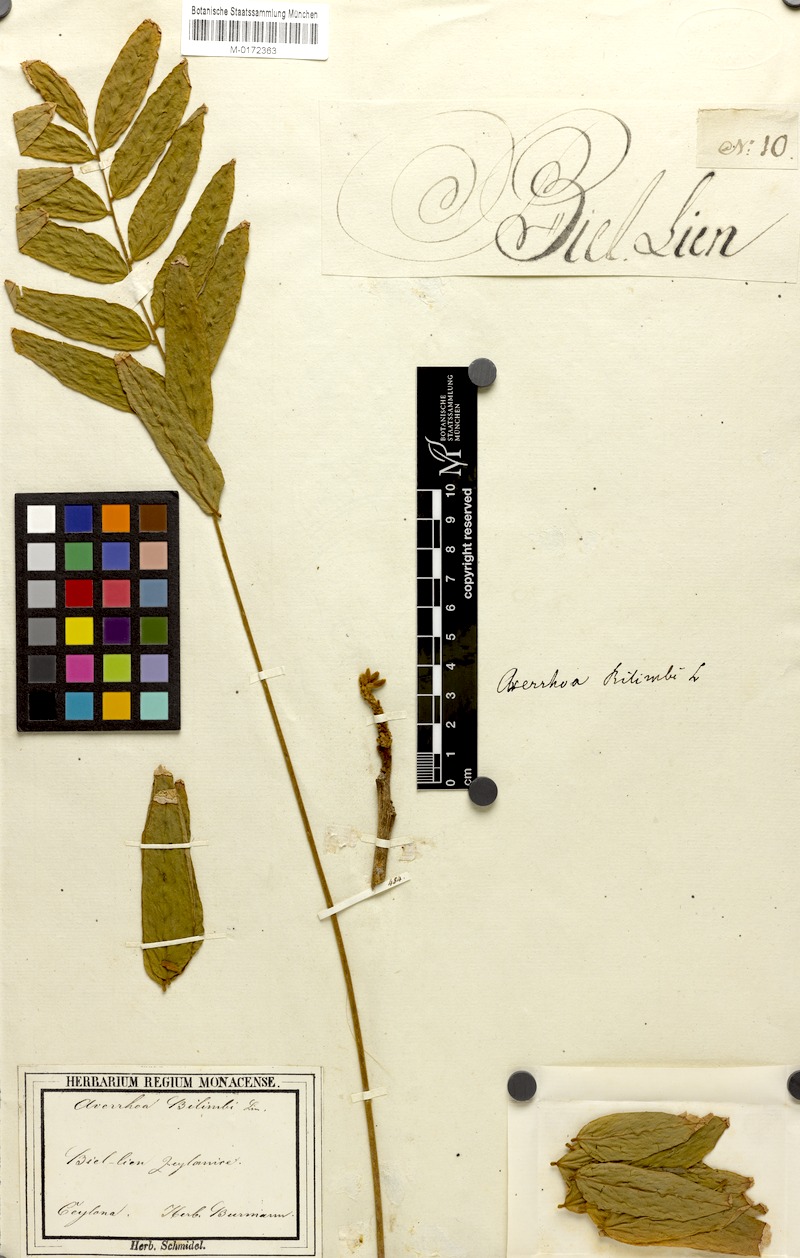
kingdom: Plantae
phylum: Tracheophyta
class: Magnoliopsida
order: Oxalidales
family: Oxalidaceae
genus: Averrhoa
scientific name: Averrhoa bilimbi
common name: Bilimbi
